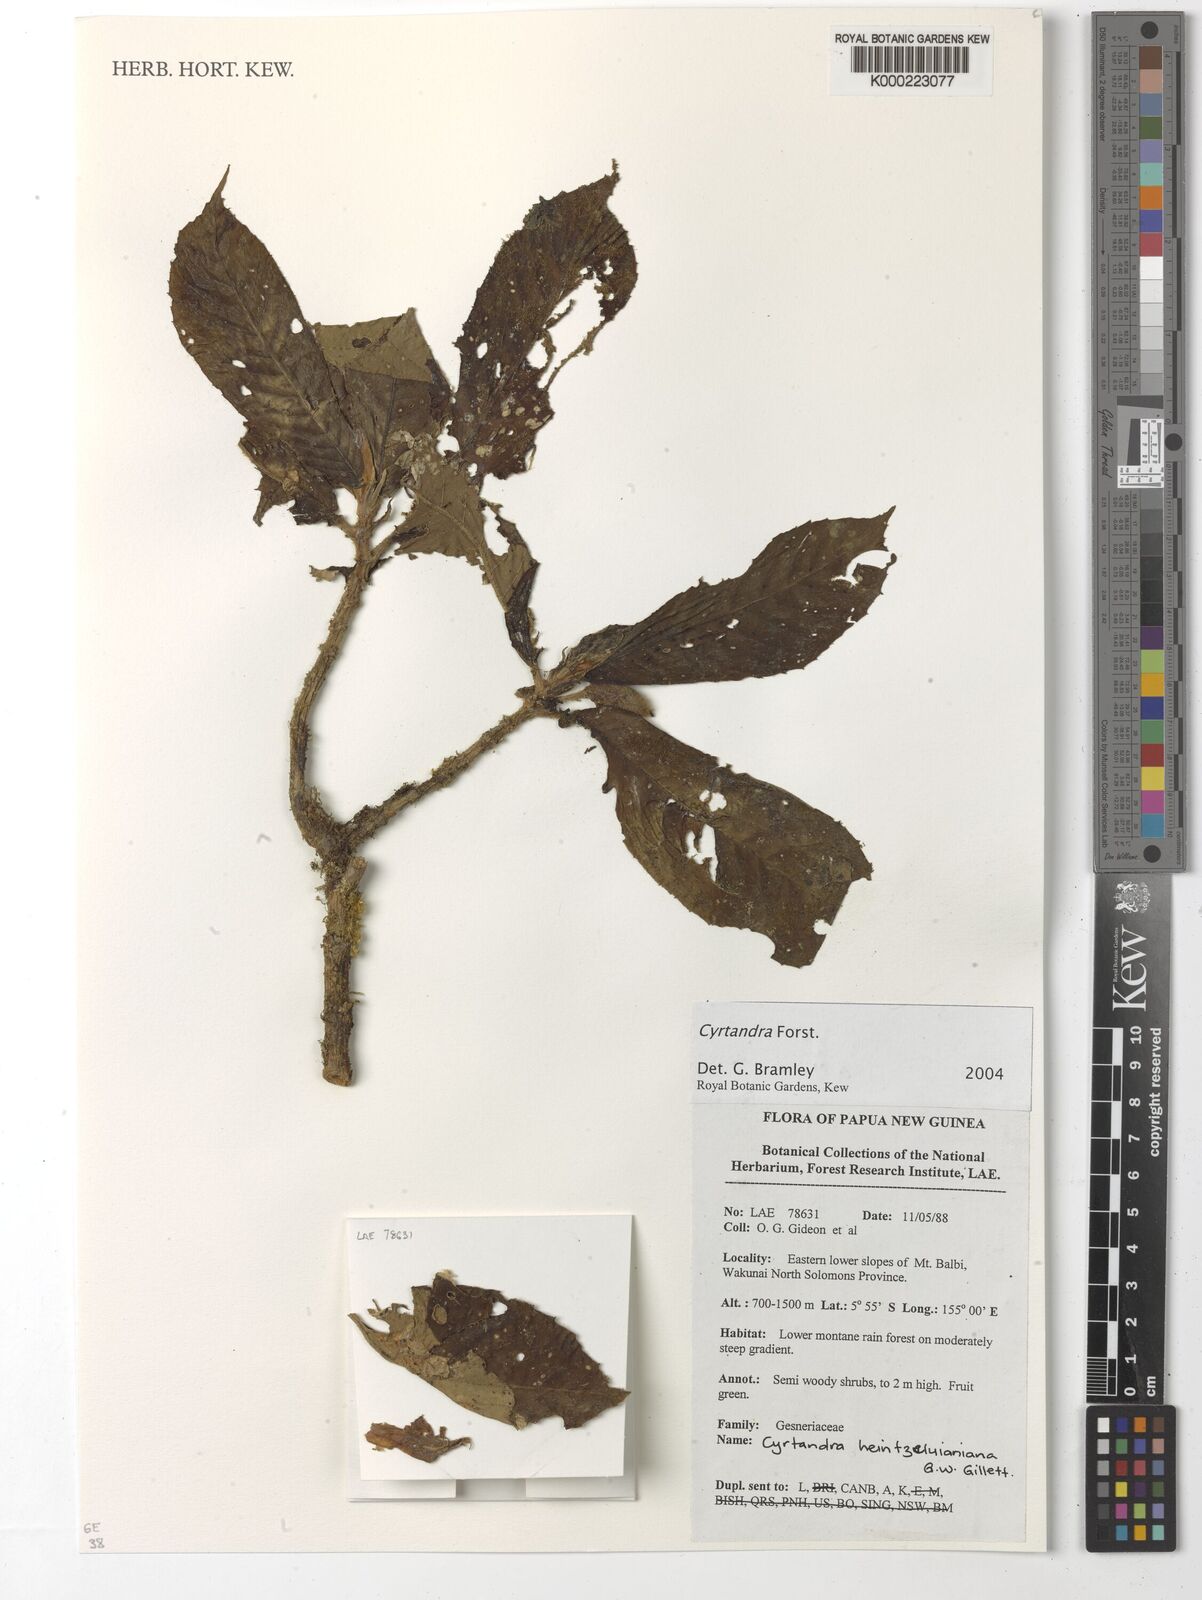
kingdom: Plantae
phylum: Tracheophyta
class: Magnoliopsida
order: Lamiales
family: Gesneriaceae
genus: Cyrtandra
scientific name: Cyrtandra
